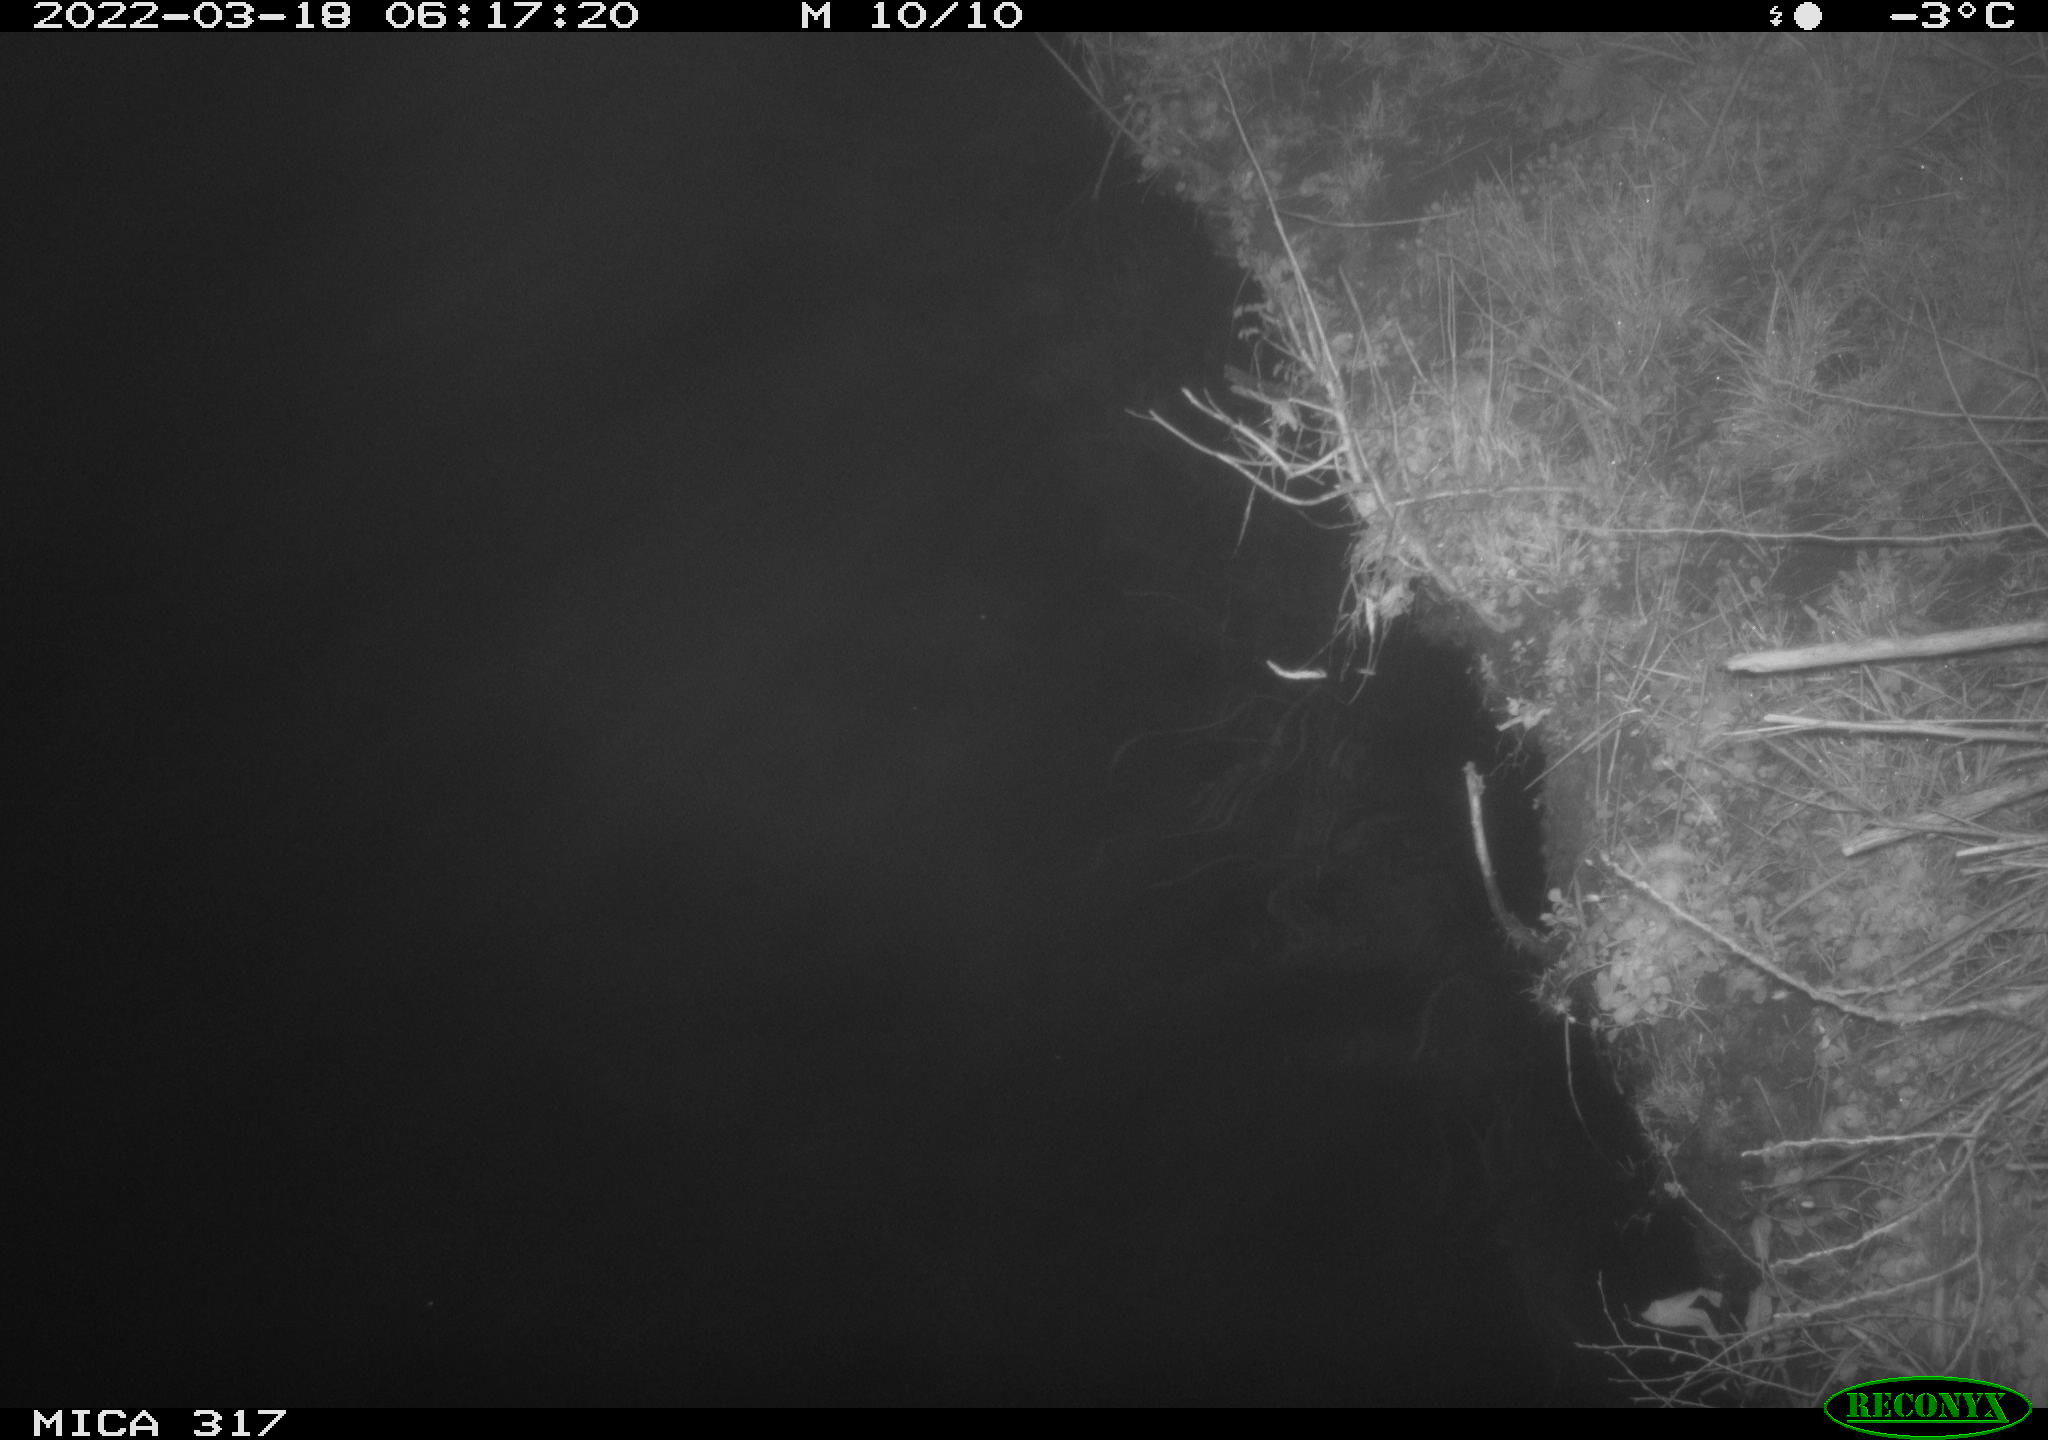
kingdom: Animalia
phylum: Chordata
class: Aves
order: Anseriformes
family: Anatidae
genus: Anas
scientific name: Anas platyrhynchos
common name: Mallard
